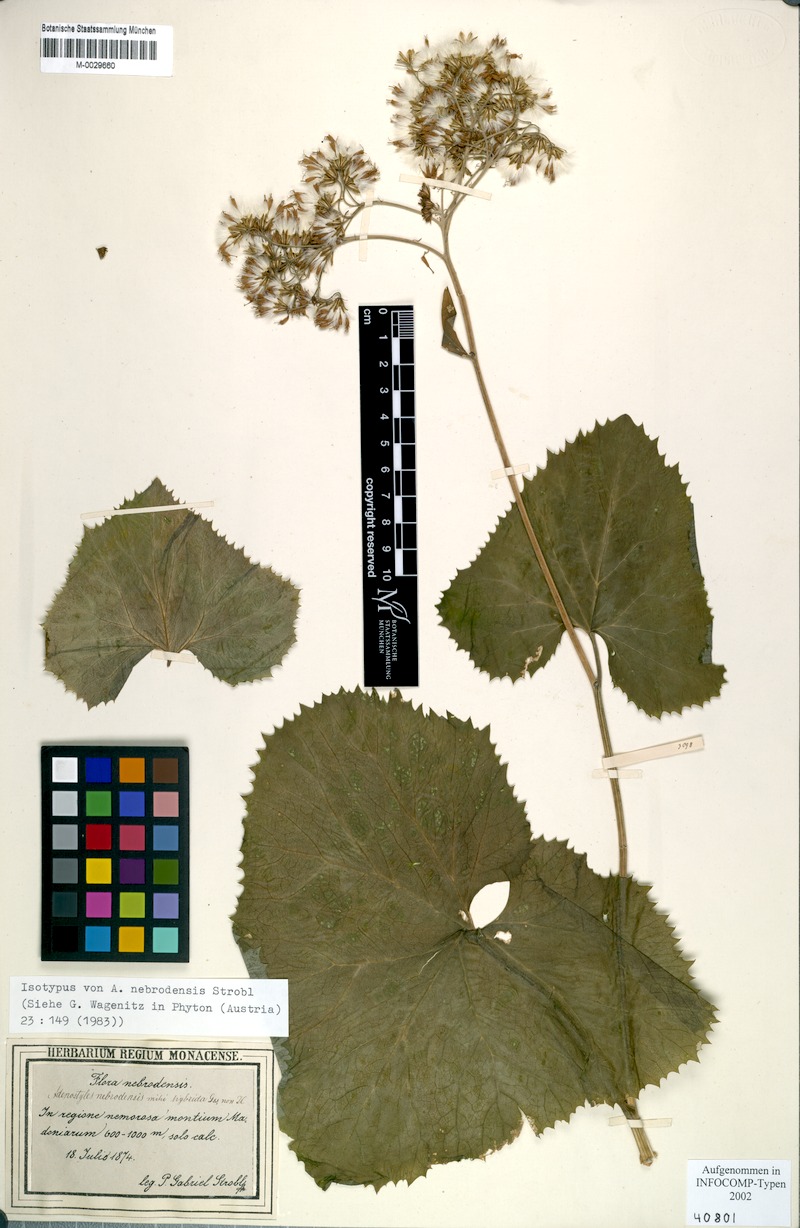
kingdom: Plantae
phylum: Tracheophyta
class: Magnoliopsida
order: Asterales
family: Asteraceae
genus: Adenostyles
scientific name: Adenostyles alpina
